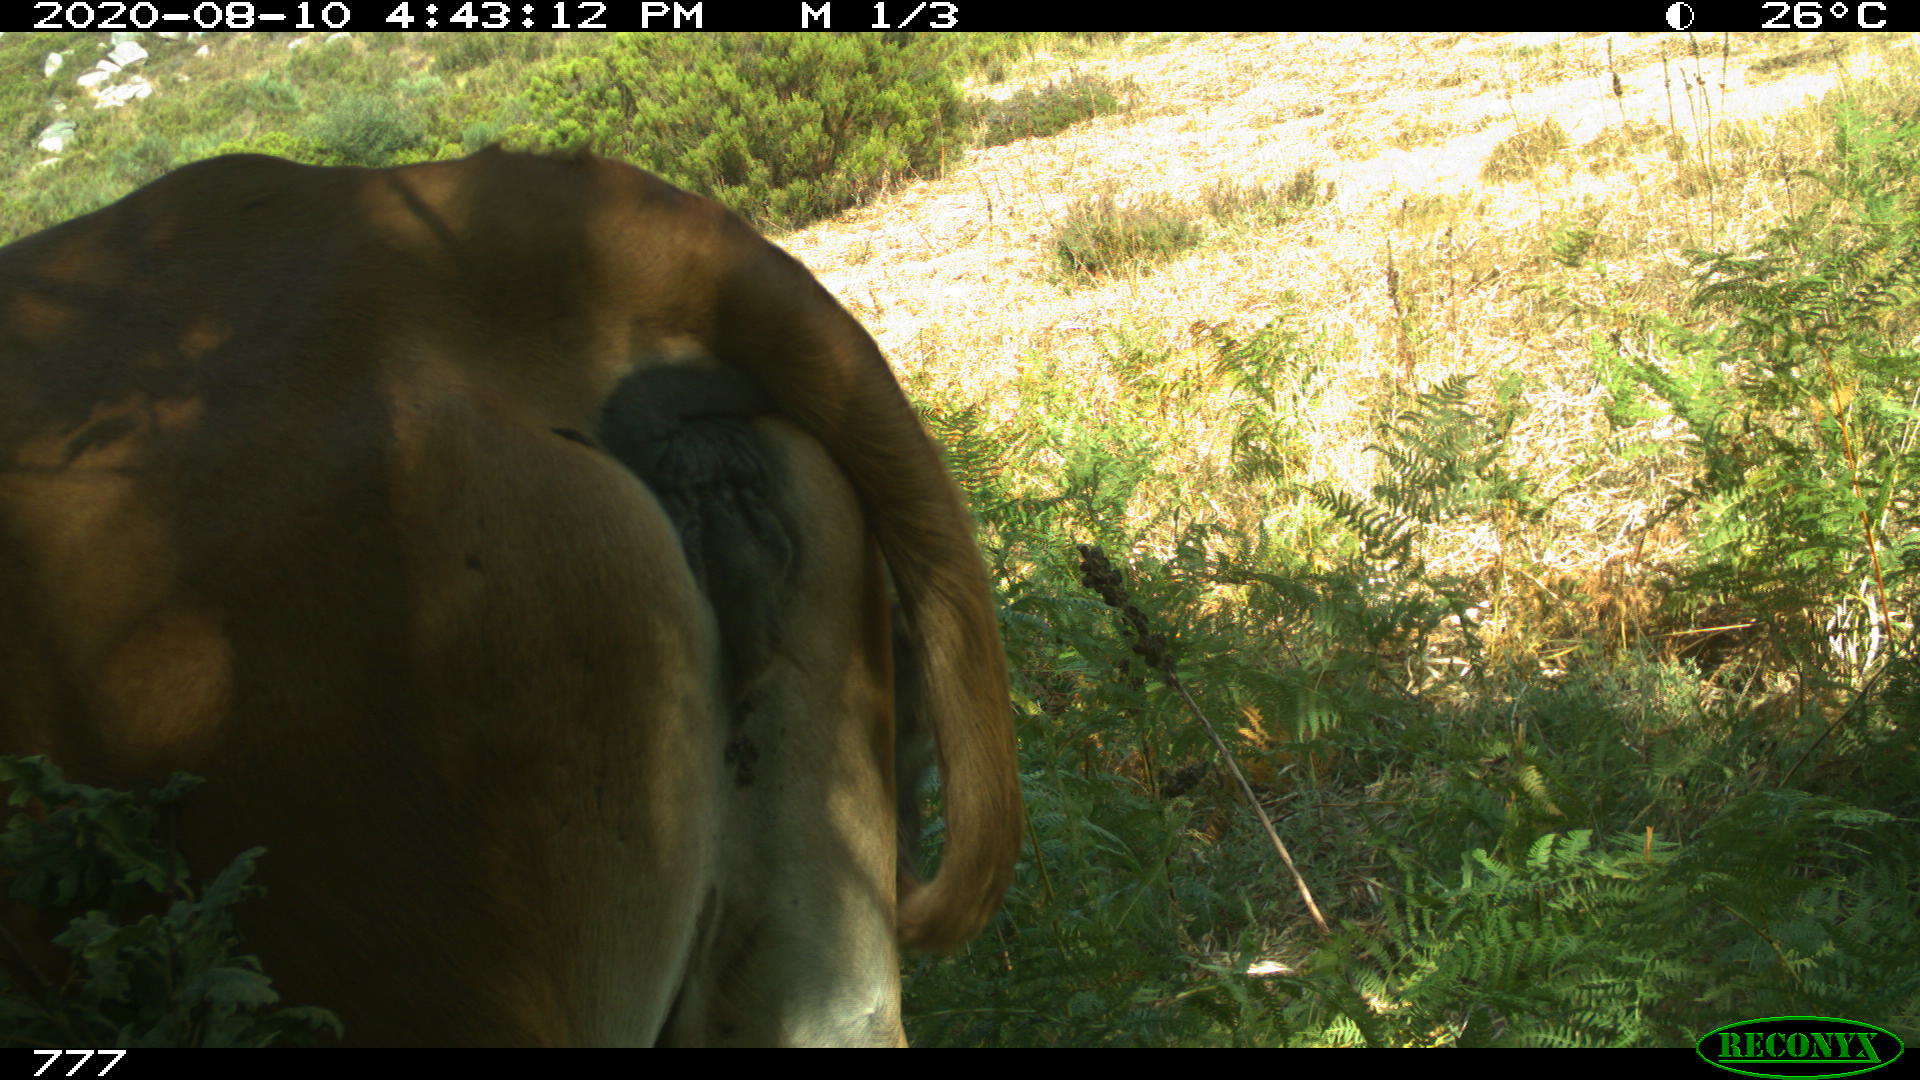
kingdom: Animalia
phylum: Chordata
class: Mammalia
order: Artiodactyla
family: Bovidae
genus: Bos
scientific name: Bos taurus
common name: Domesticated cattle
